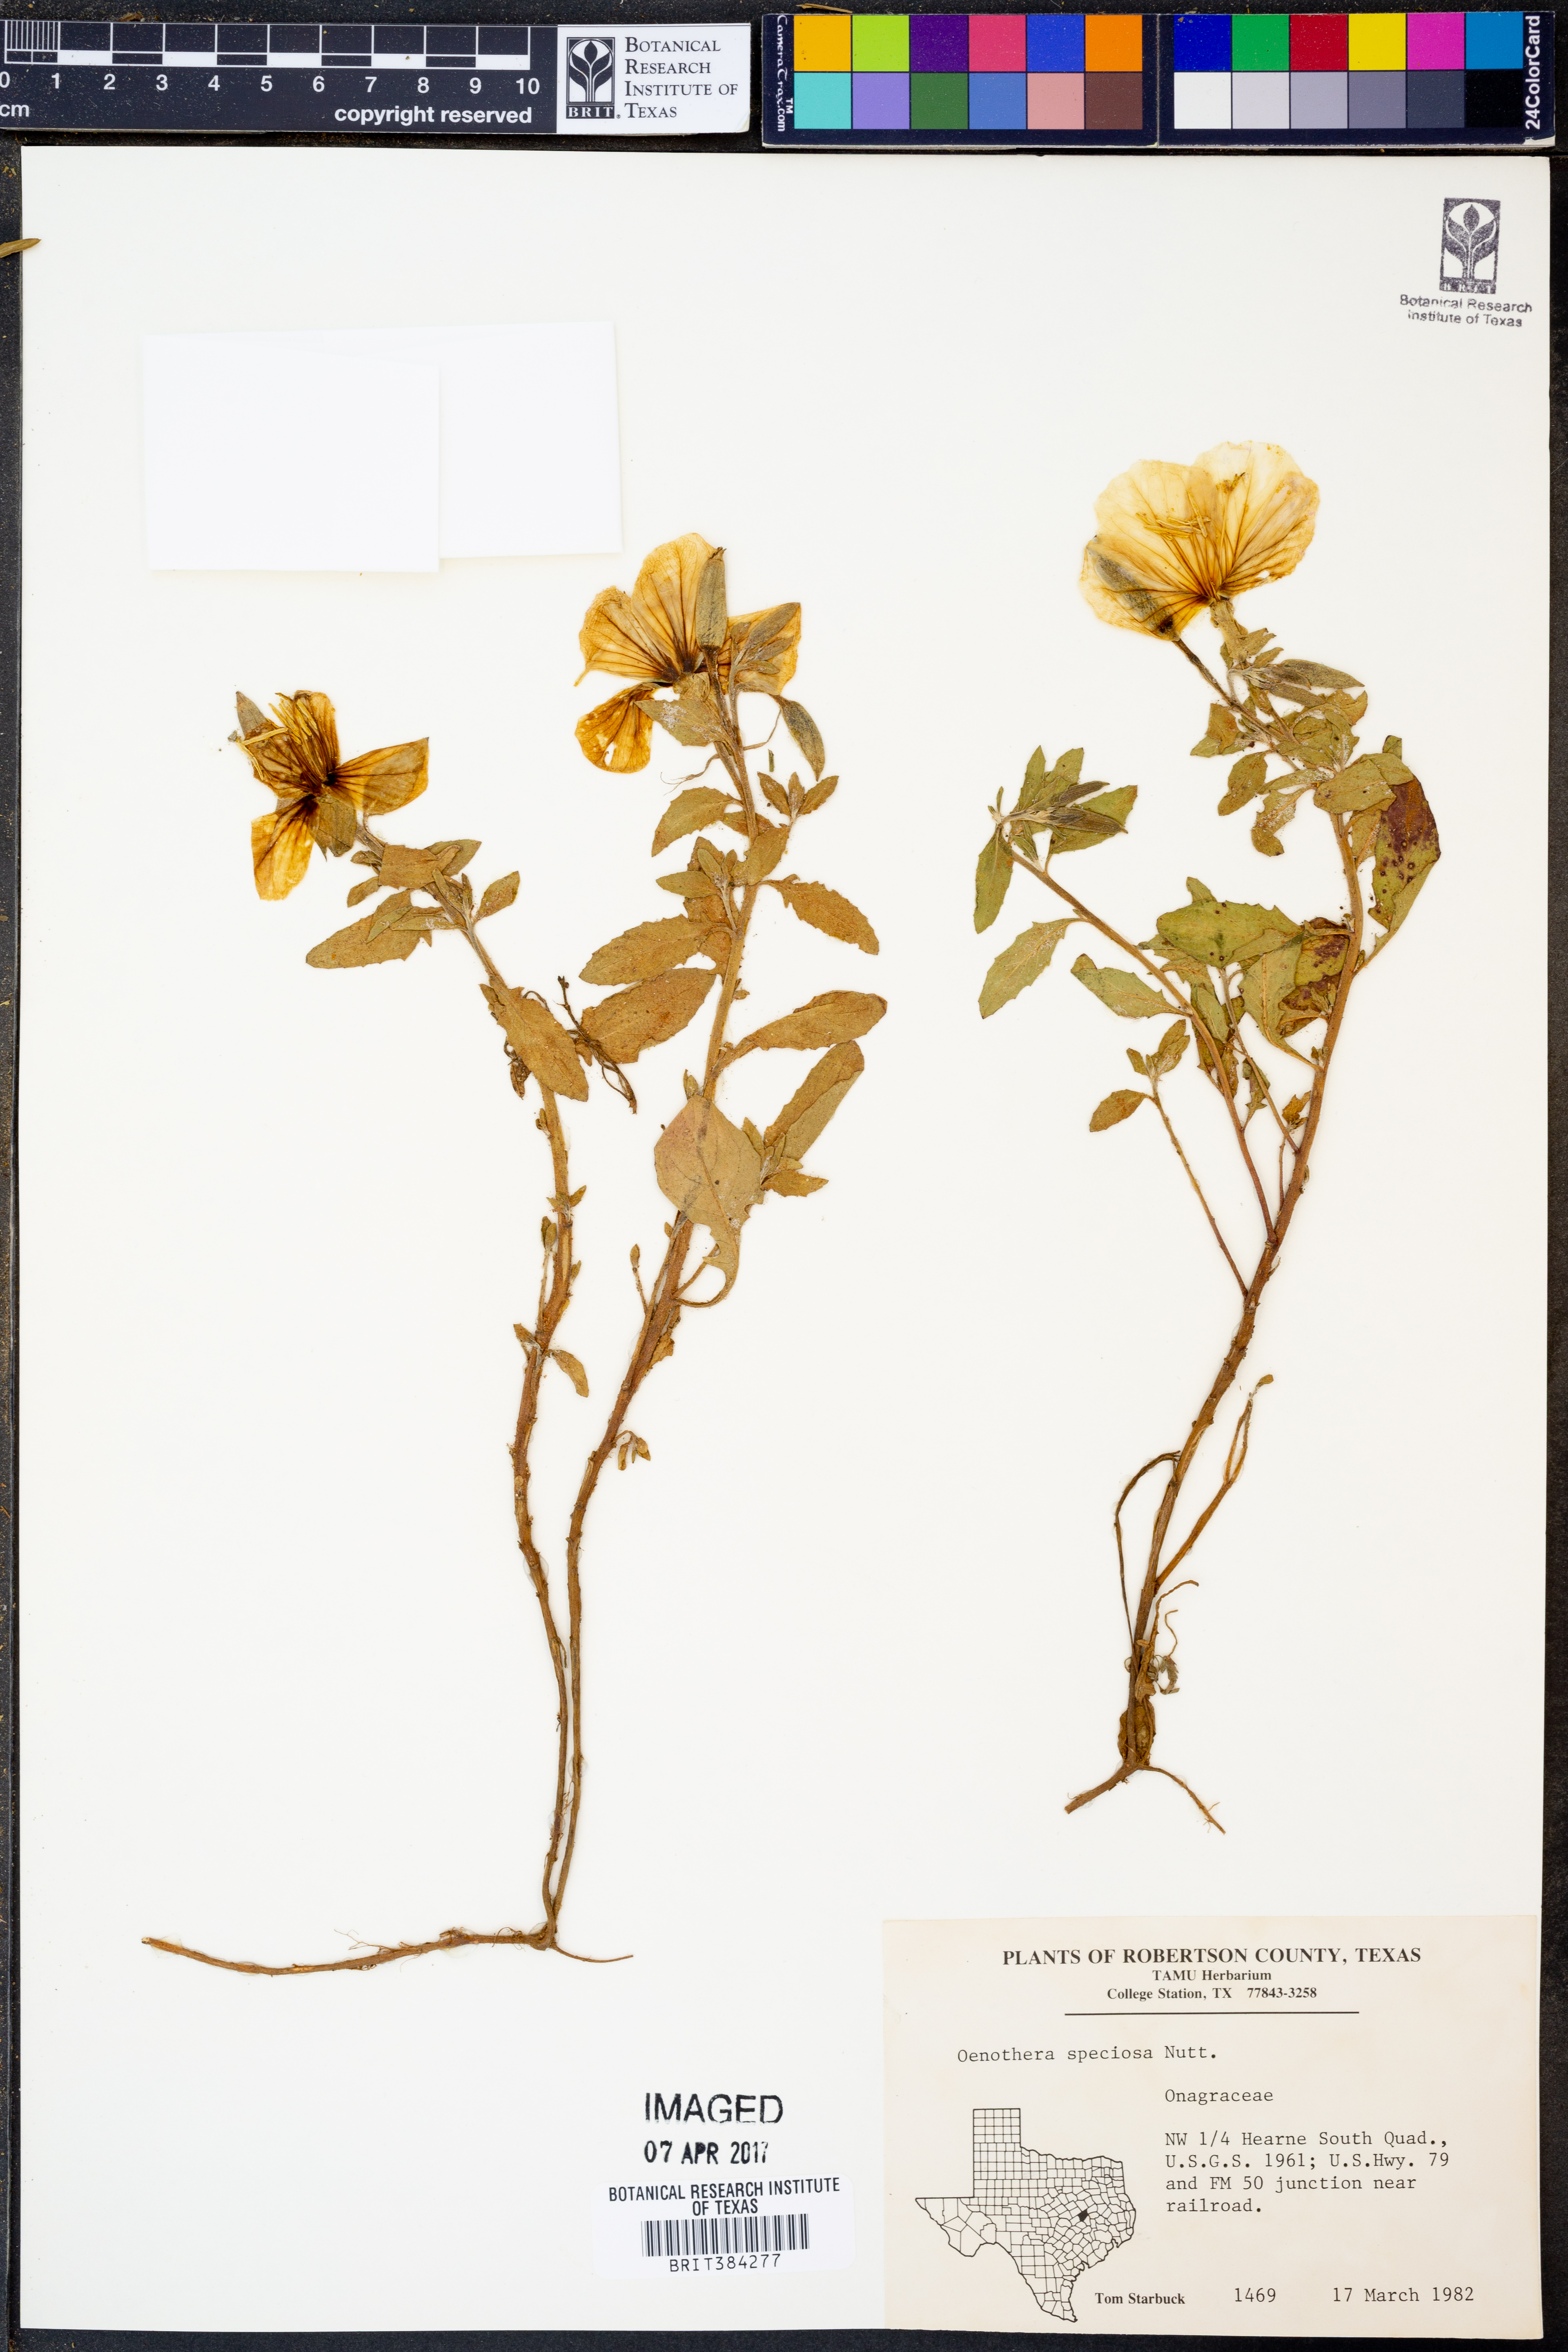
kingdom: Plantae
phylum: Tracheophyta
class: Magnoliopsida
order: Myrtales
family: Onagraceae
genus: Oenothera
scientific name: Oenothera speciosa
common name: White evening-primrose
